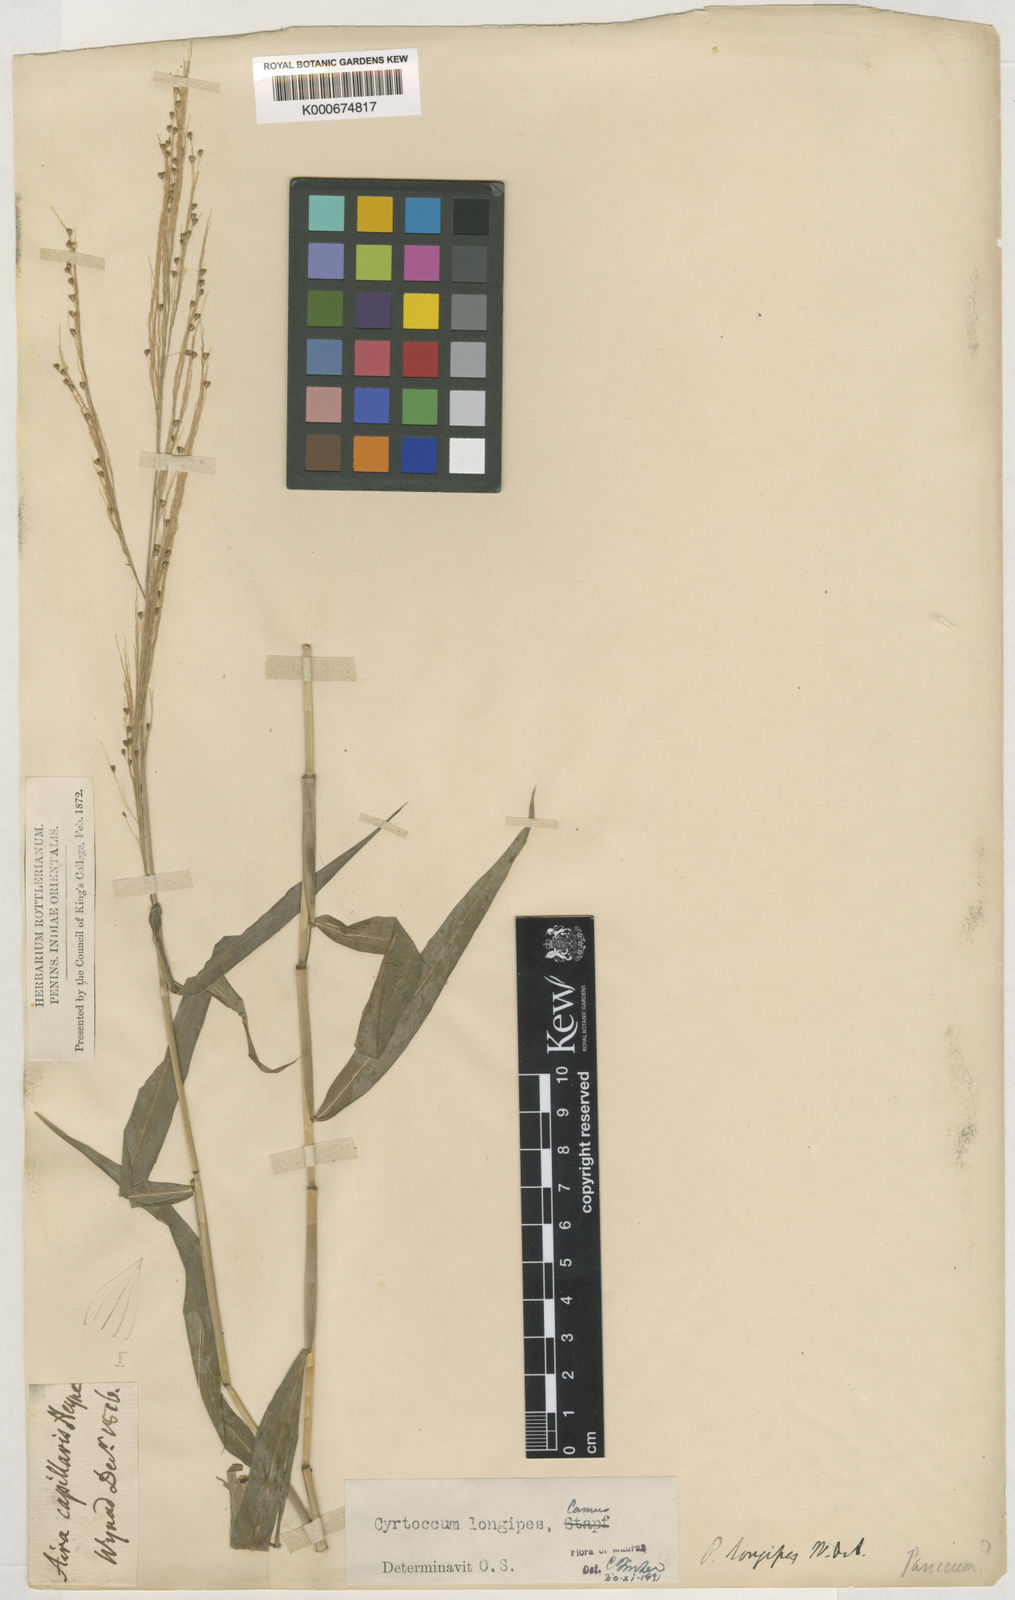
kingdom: Plantae
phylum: Tracheophyta
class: Liliopsida
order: Poales
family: Poaceae
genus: Cyrtococcum
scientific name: Cyrtococcum longipes
